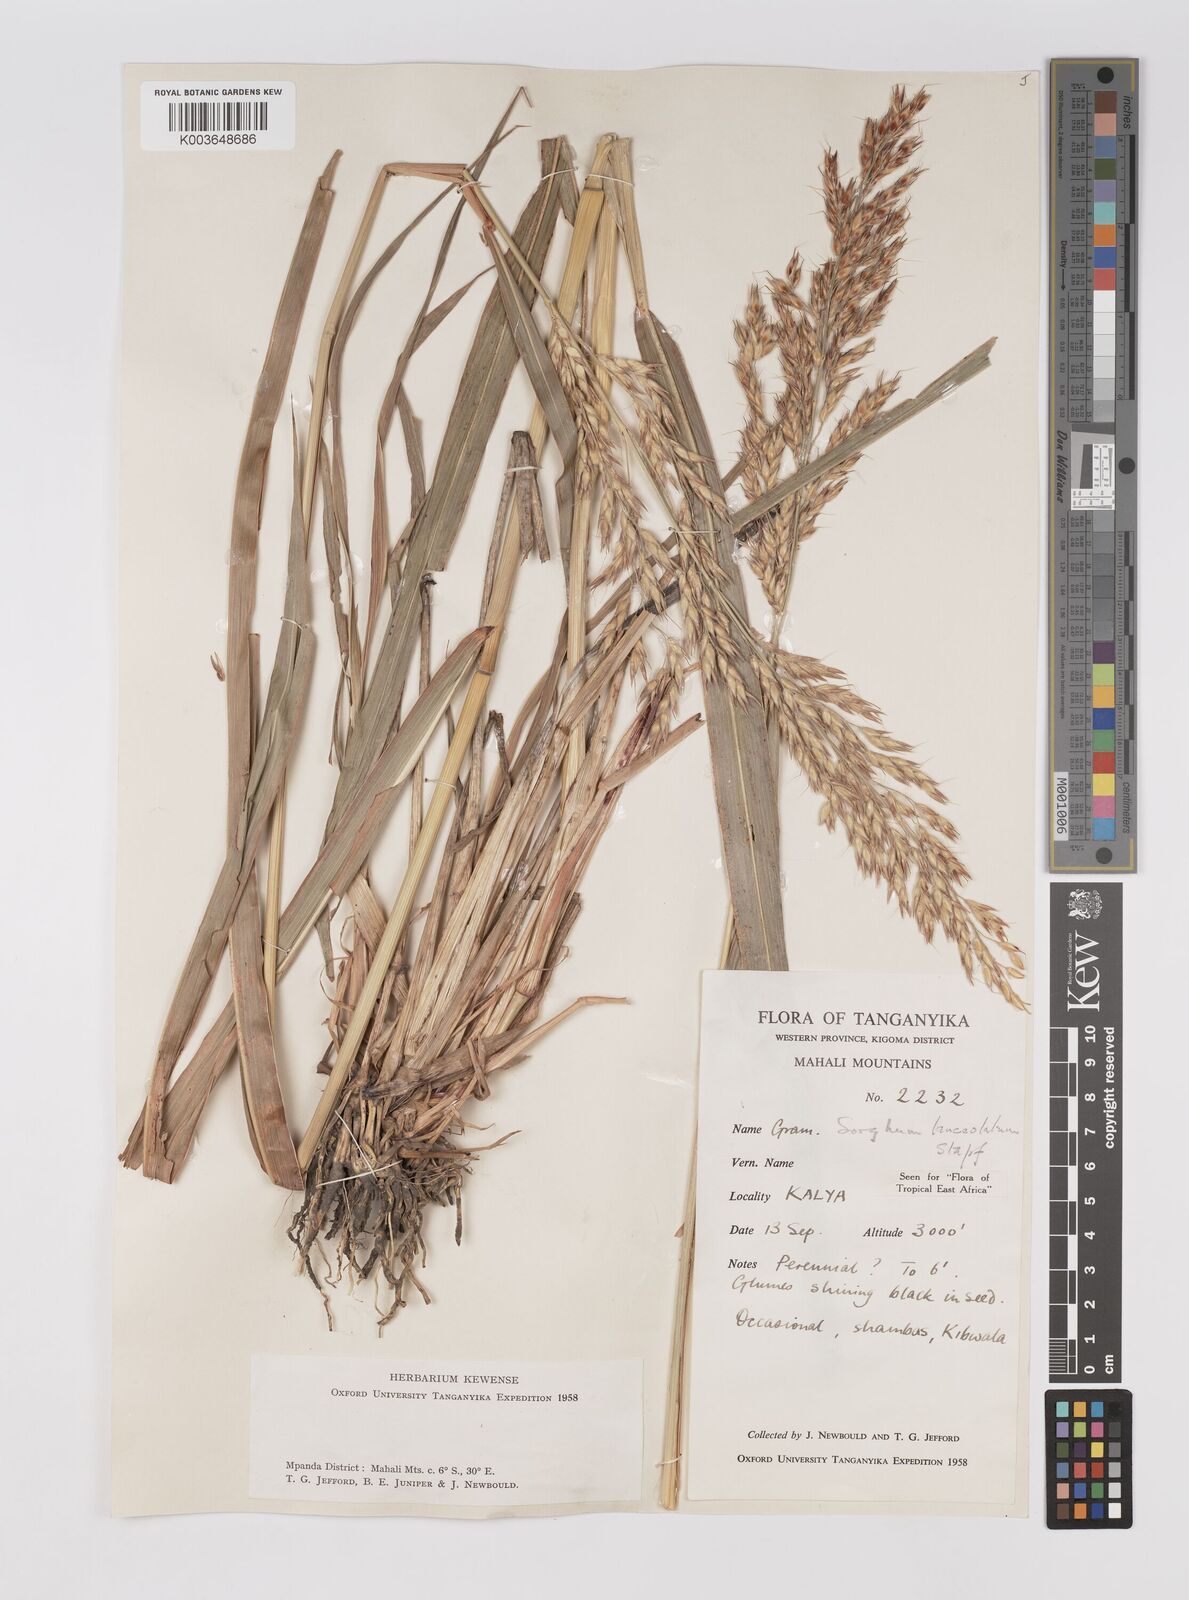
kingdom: Plantae
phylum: Tracheophyta
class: Liliopsida
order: Poales
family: Poaceae
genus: Sorghum
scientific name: Sorghum arundinaceum
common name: Sorghum
